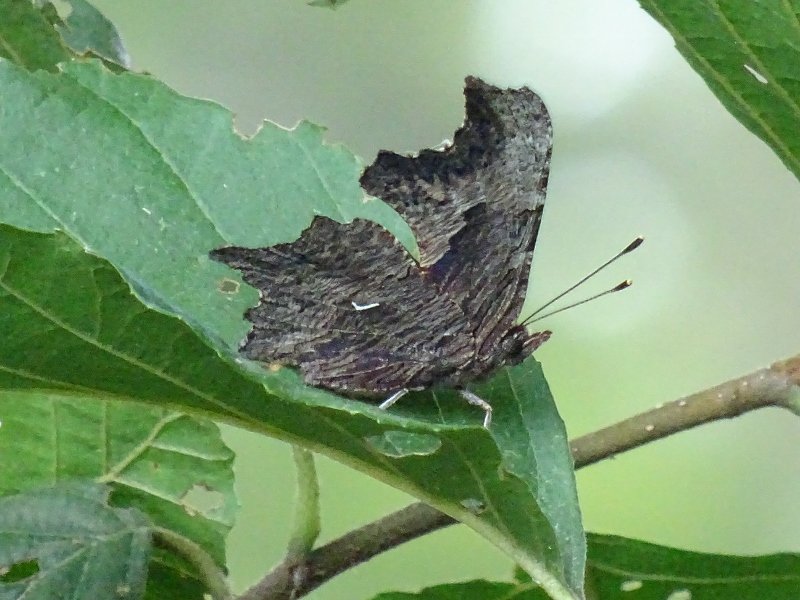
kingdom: Animalia
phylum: Arthropoda
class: Insecta
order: Lepidoptera
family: Nymphalidae
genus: Polygonia
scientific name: Polygonia progne
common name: Gray Comma
